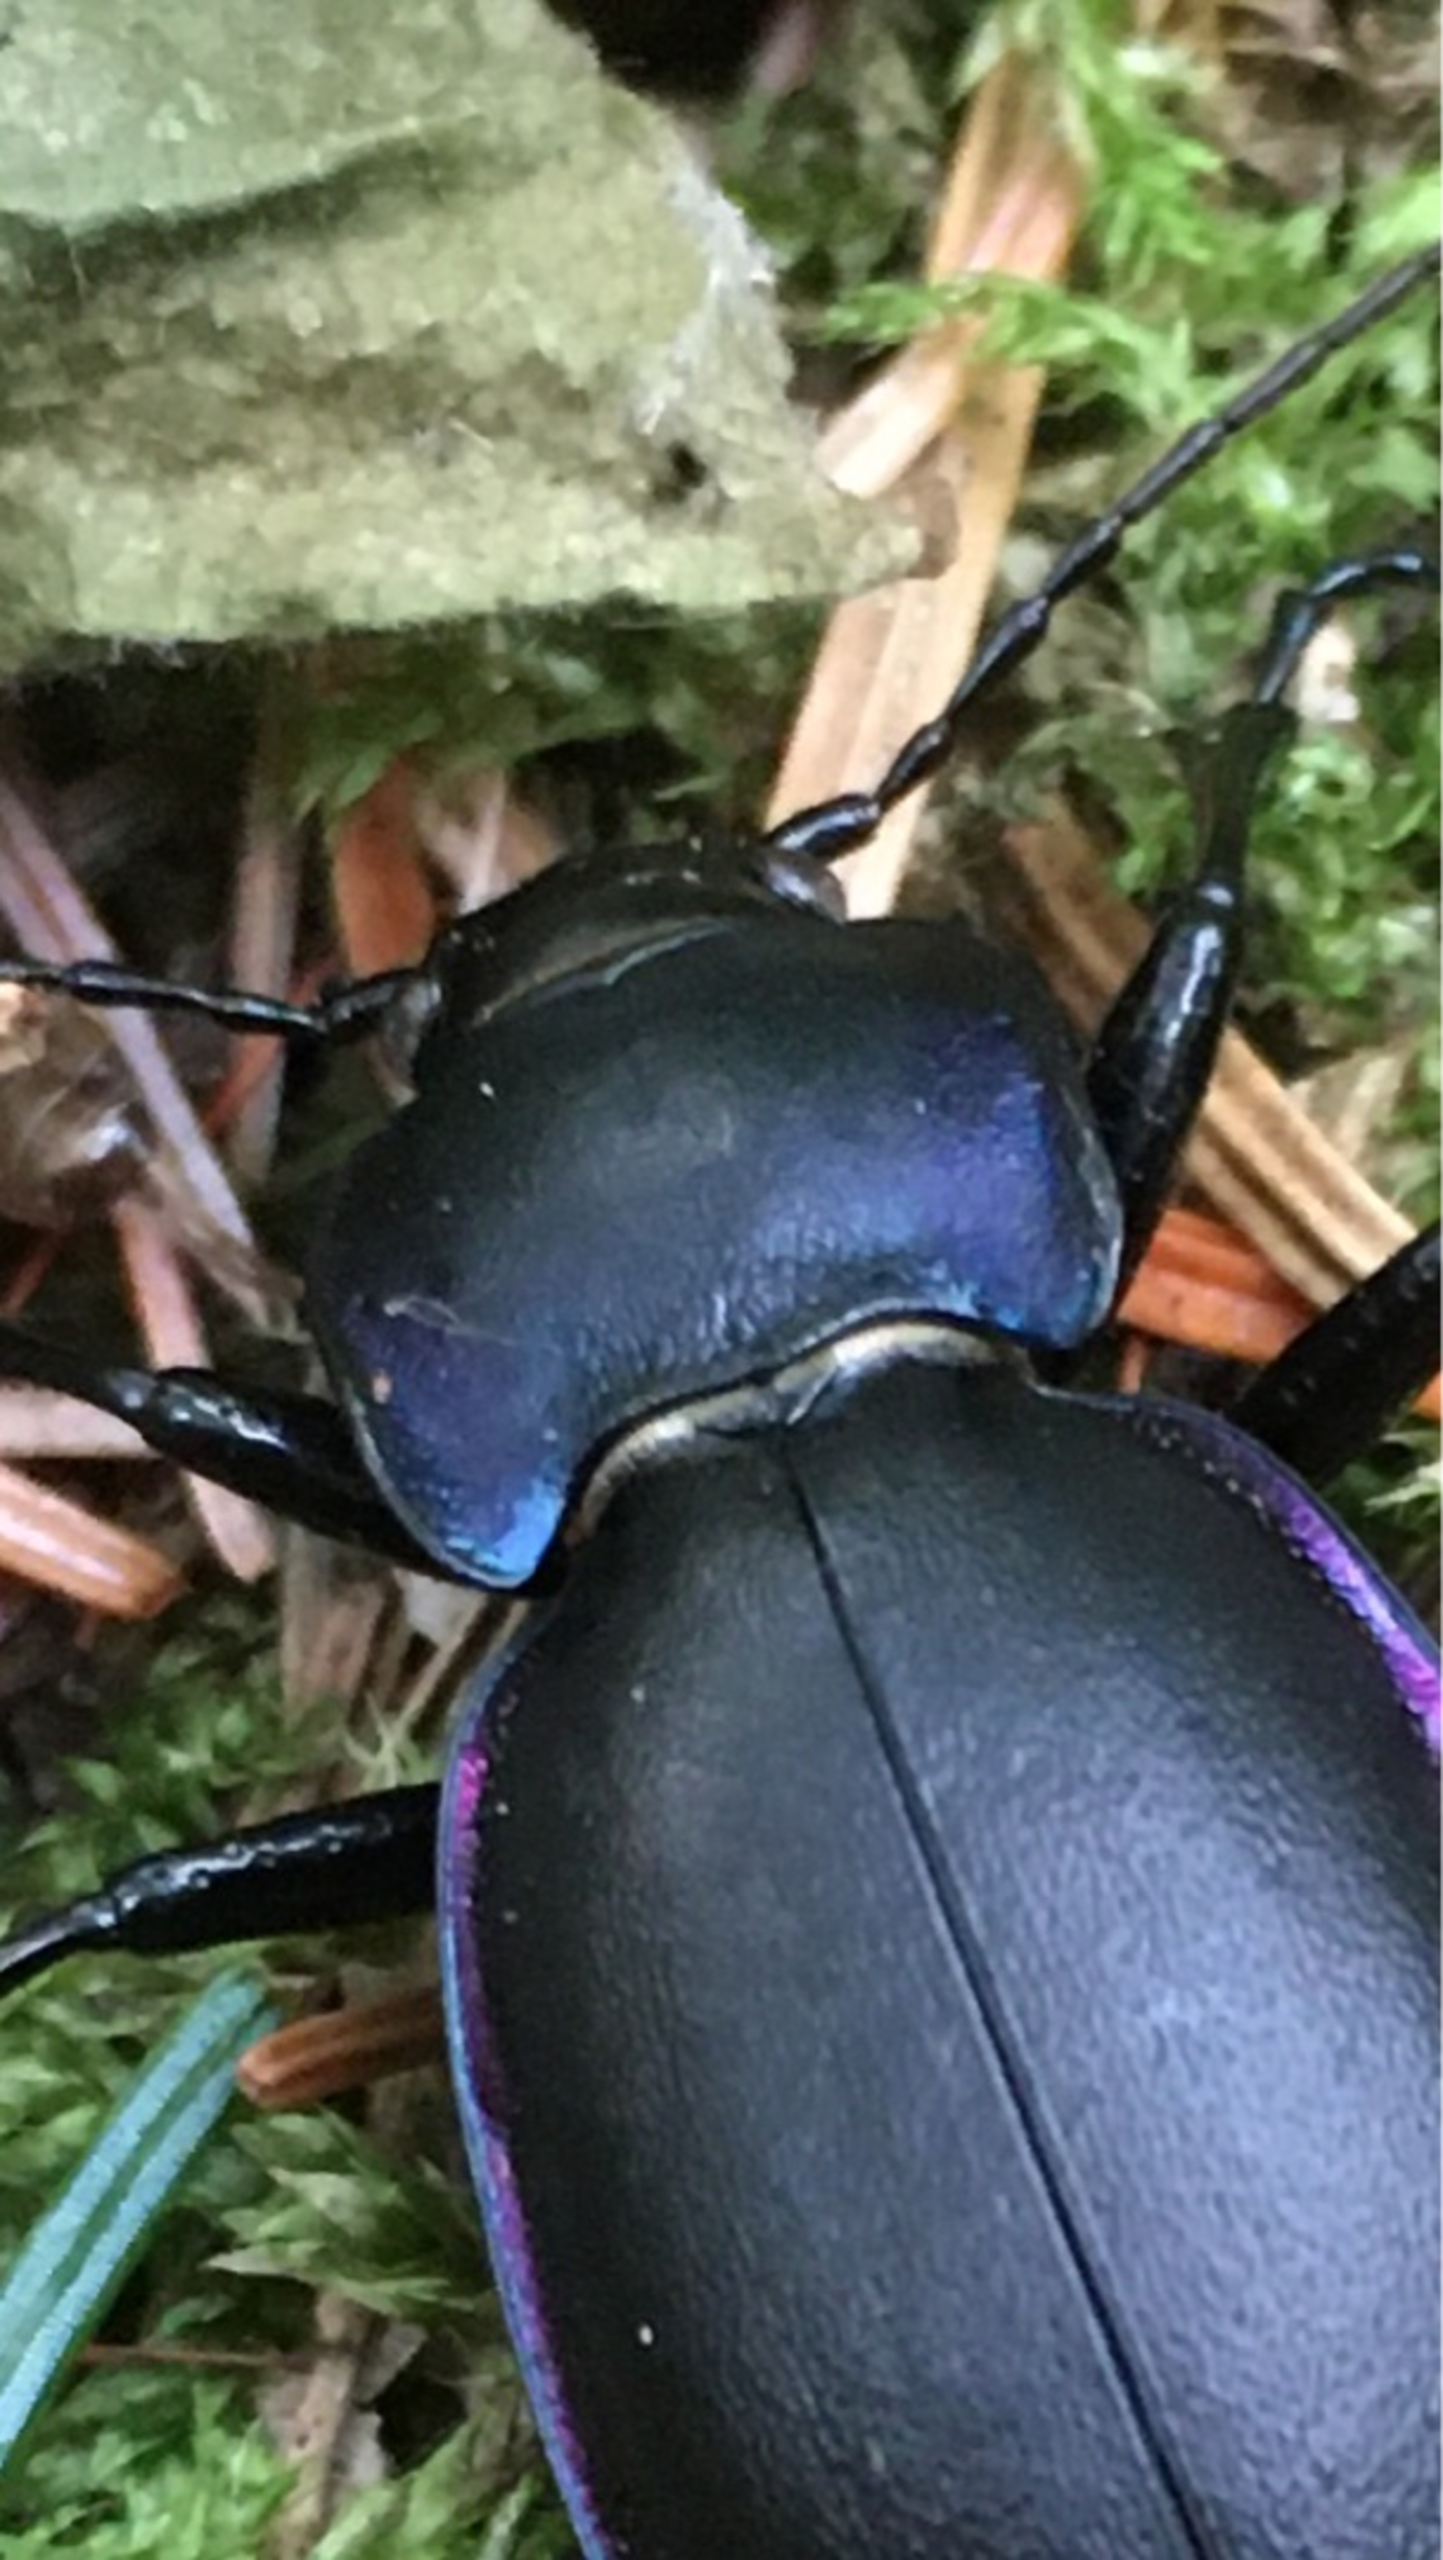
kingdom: Animalia
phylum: Arthropoda
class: Insecta
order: Coleoptera
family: Carabidae
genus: Carabus
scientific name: Carabus violaceus
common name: Violetrandet løber
